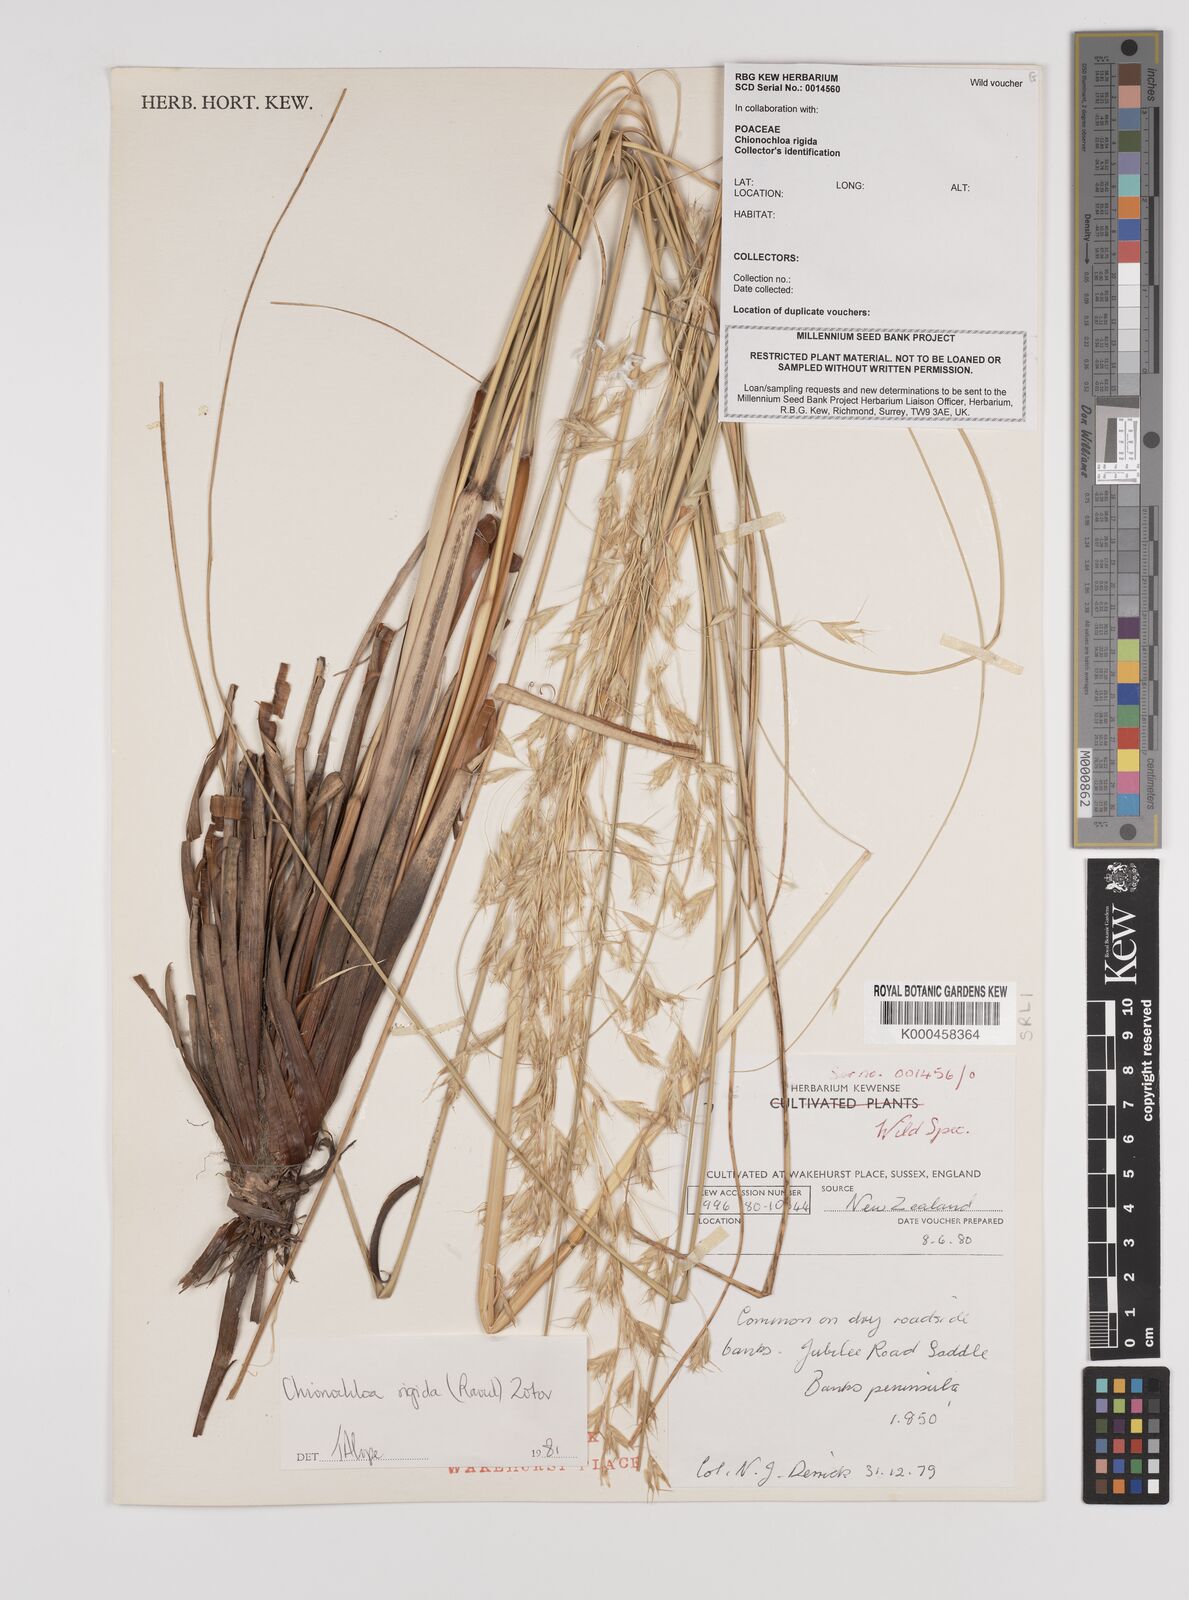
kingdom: Plantae
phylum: Tracheophyta
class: Liliopsida
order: Poales
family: Poaceae
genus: Chionochloa
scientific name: Chionochloa rigida
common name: Narrow leaved snow tussock
